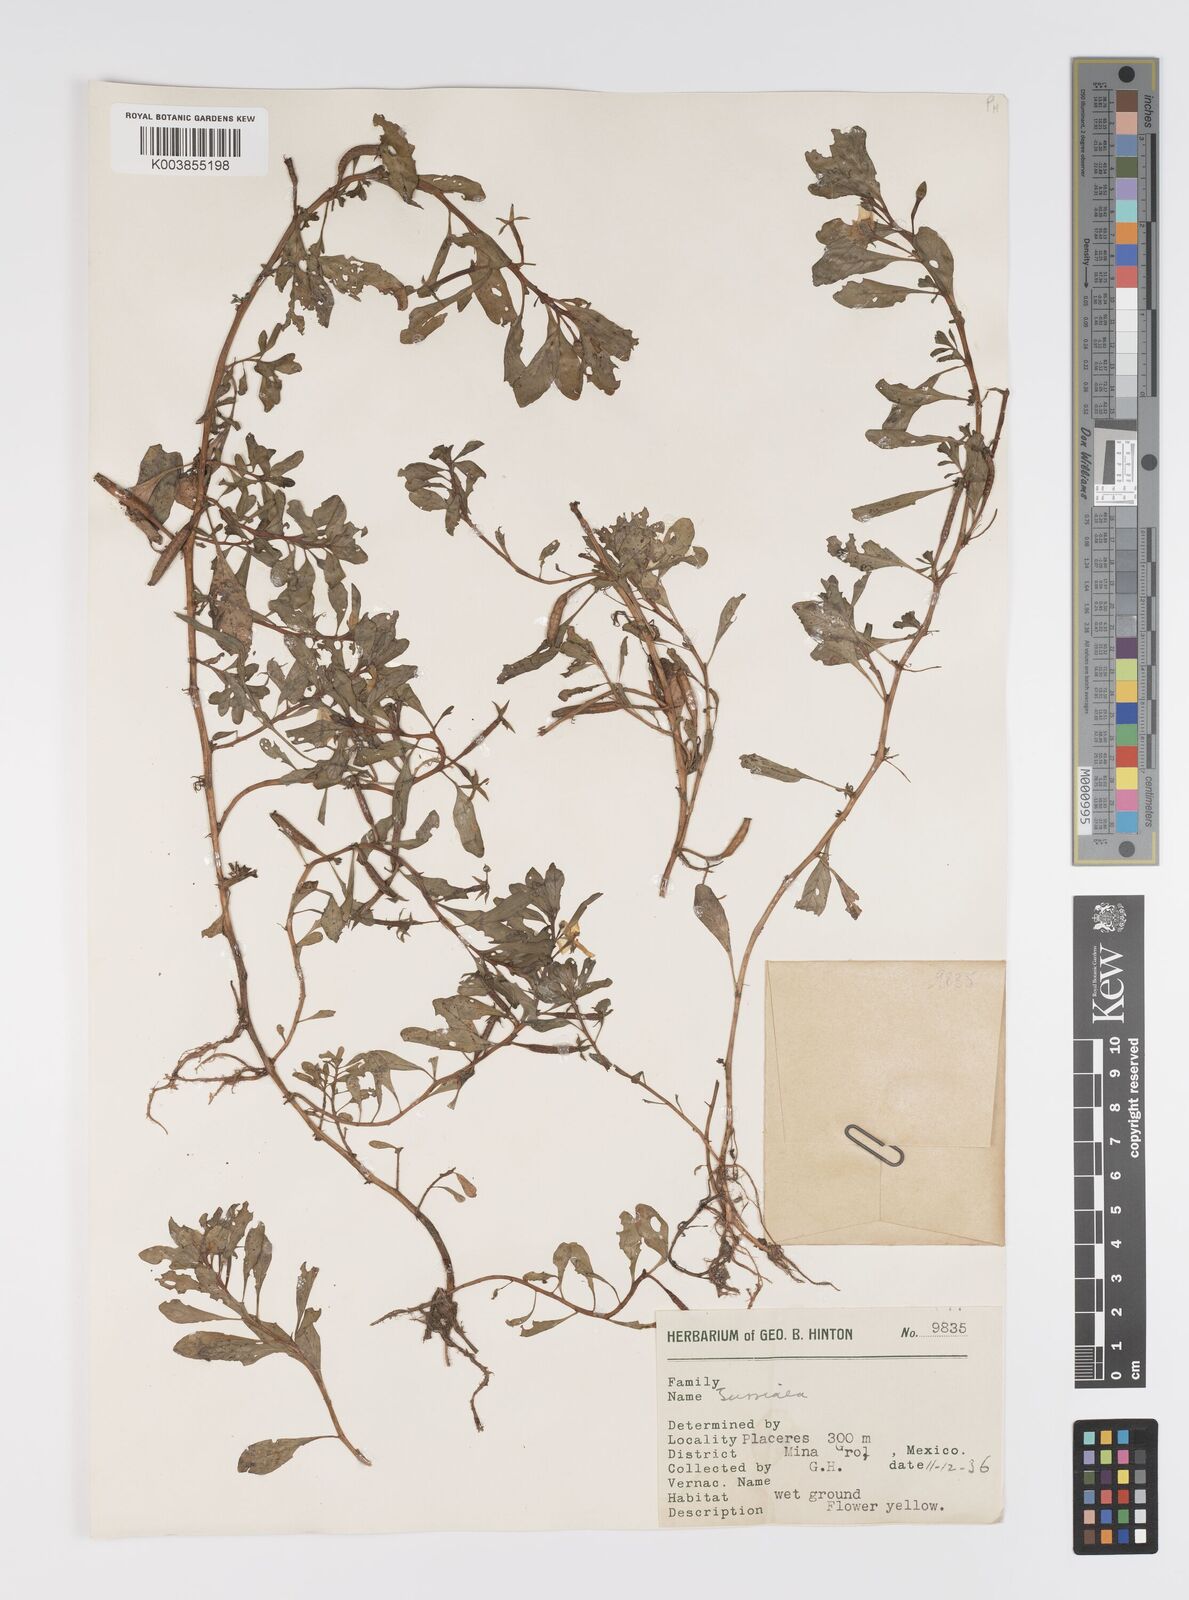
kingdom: Plantae
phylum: Tracheophyta
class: Magnoliopsida
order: Myrtales
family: Onagraceae
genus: Ludwigia
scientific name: Ludwigia
